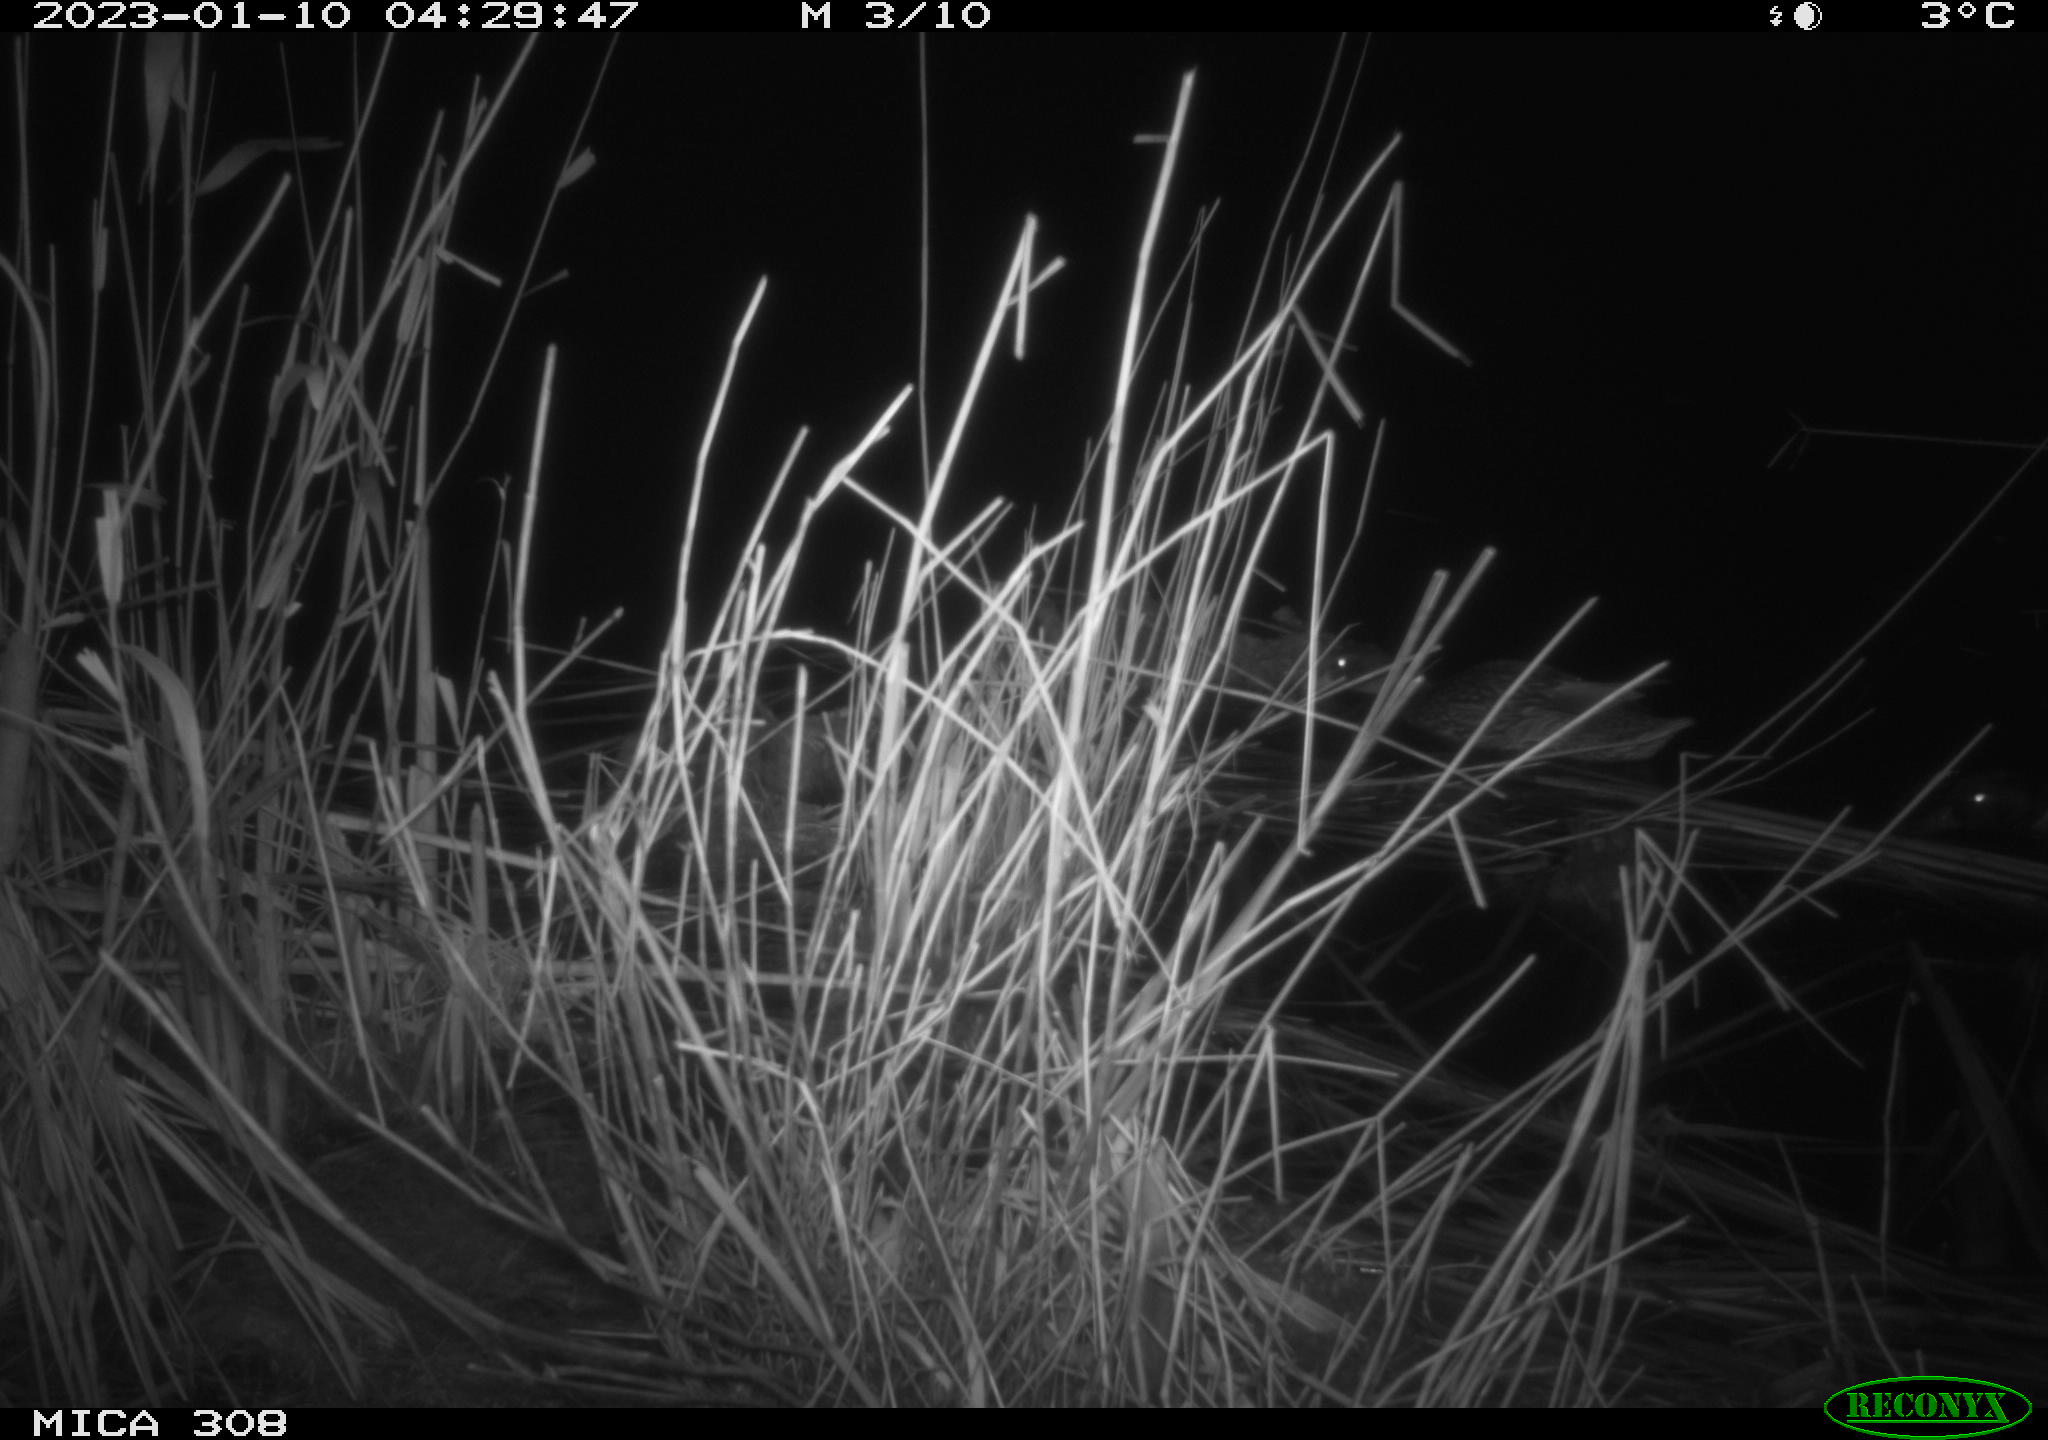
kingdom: Animalia
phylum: Chordata
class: Mammalia
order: Rodentia
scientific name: Rodentia
